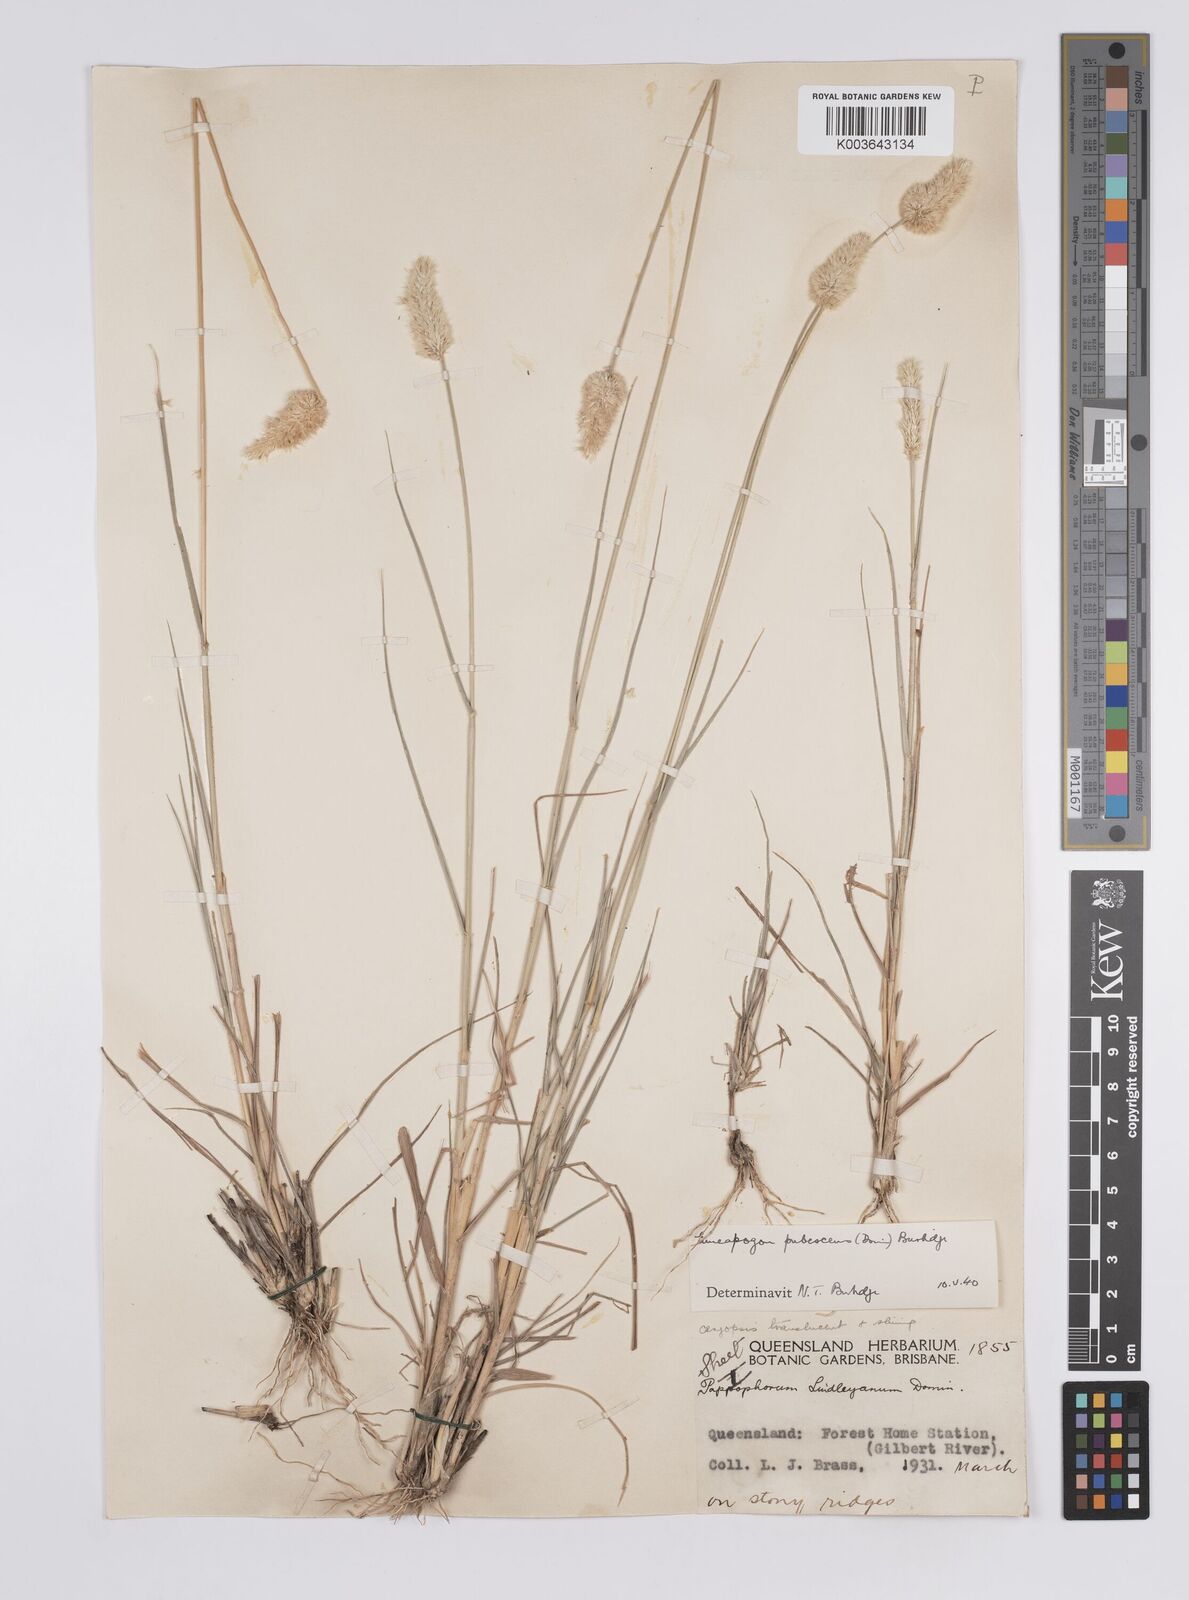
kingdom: Plantae
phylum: Tracheophyta
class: Liliopsida
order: Poales
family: Poaceae
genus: Enneapogon
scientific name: Enneapogon lindleyanus
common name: Conetop nineawn
